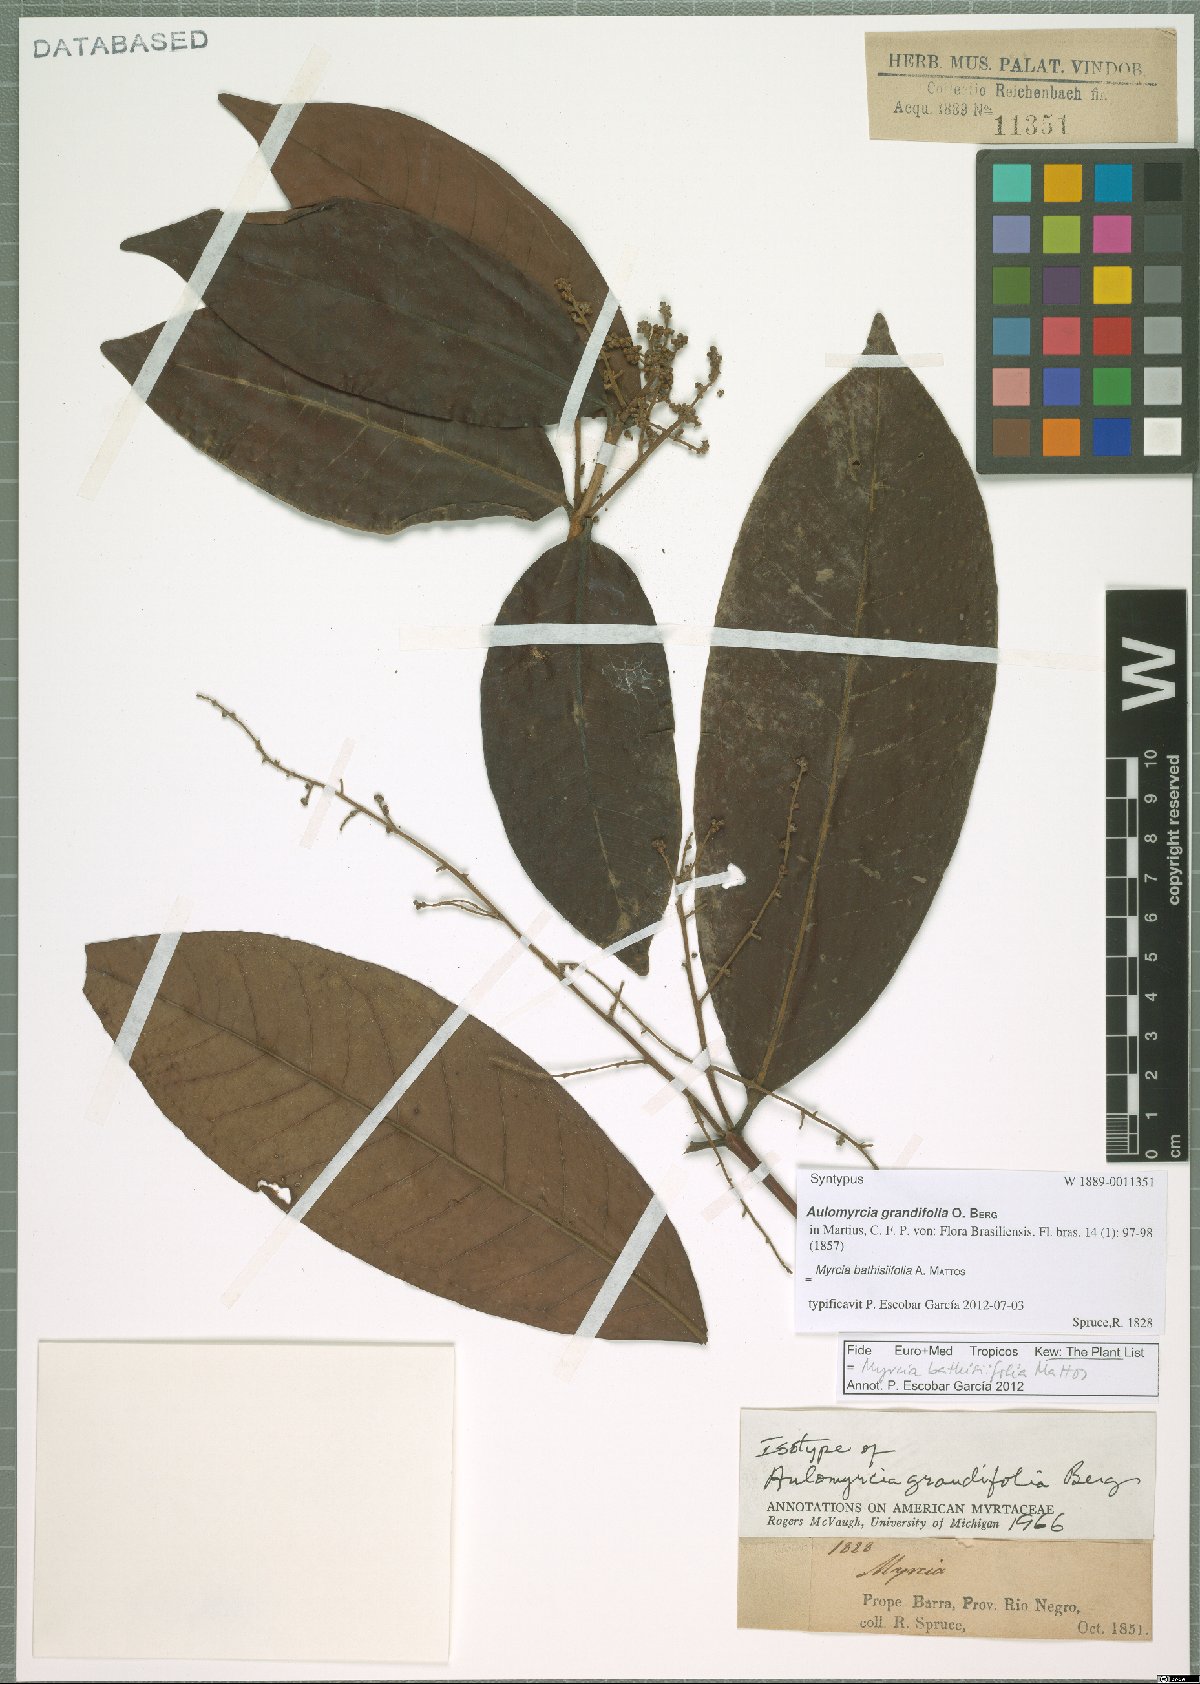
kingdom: Plantae
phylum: Tracheophyta
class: Magnoliopsida
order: Myrtales
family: Myrtaceae
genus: Myrcia
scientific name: Myrcia bathisiifolia
